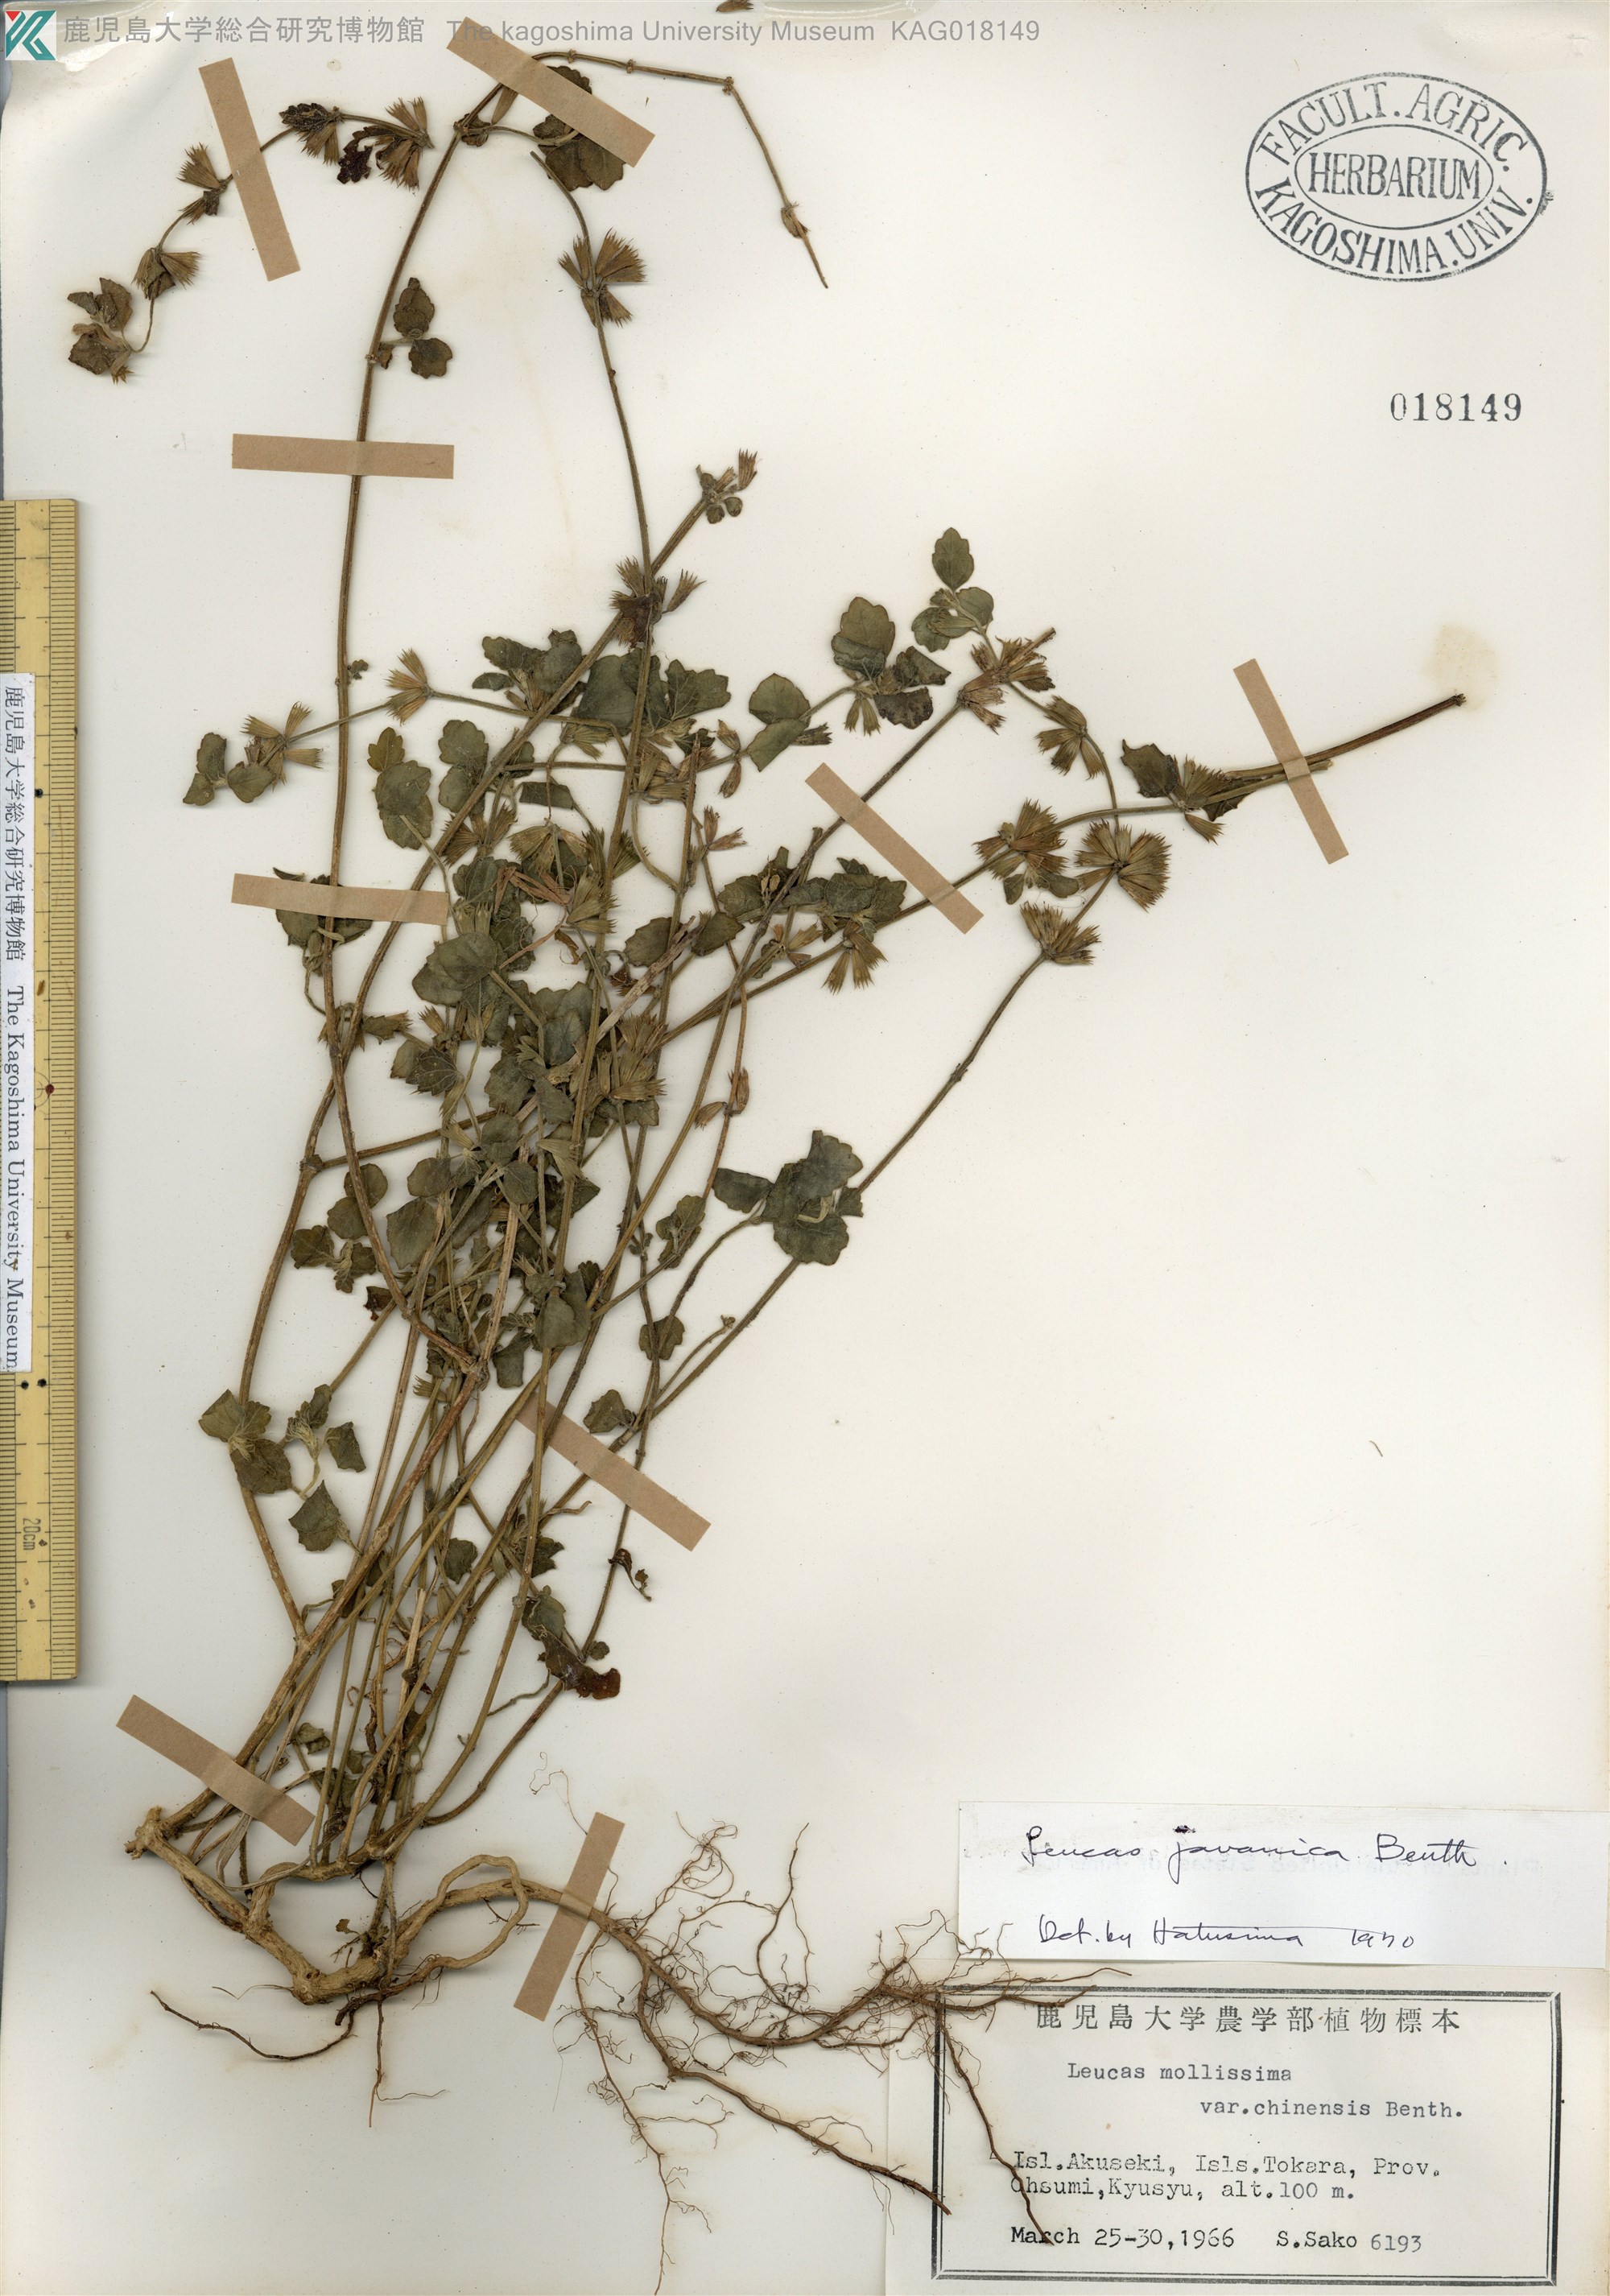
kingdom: Plantae
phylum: Tracheophyta
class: Magnoliopsida
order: Lamiales
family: Lamiaceae
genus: Leucas
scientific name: Leucas chinensis
